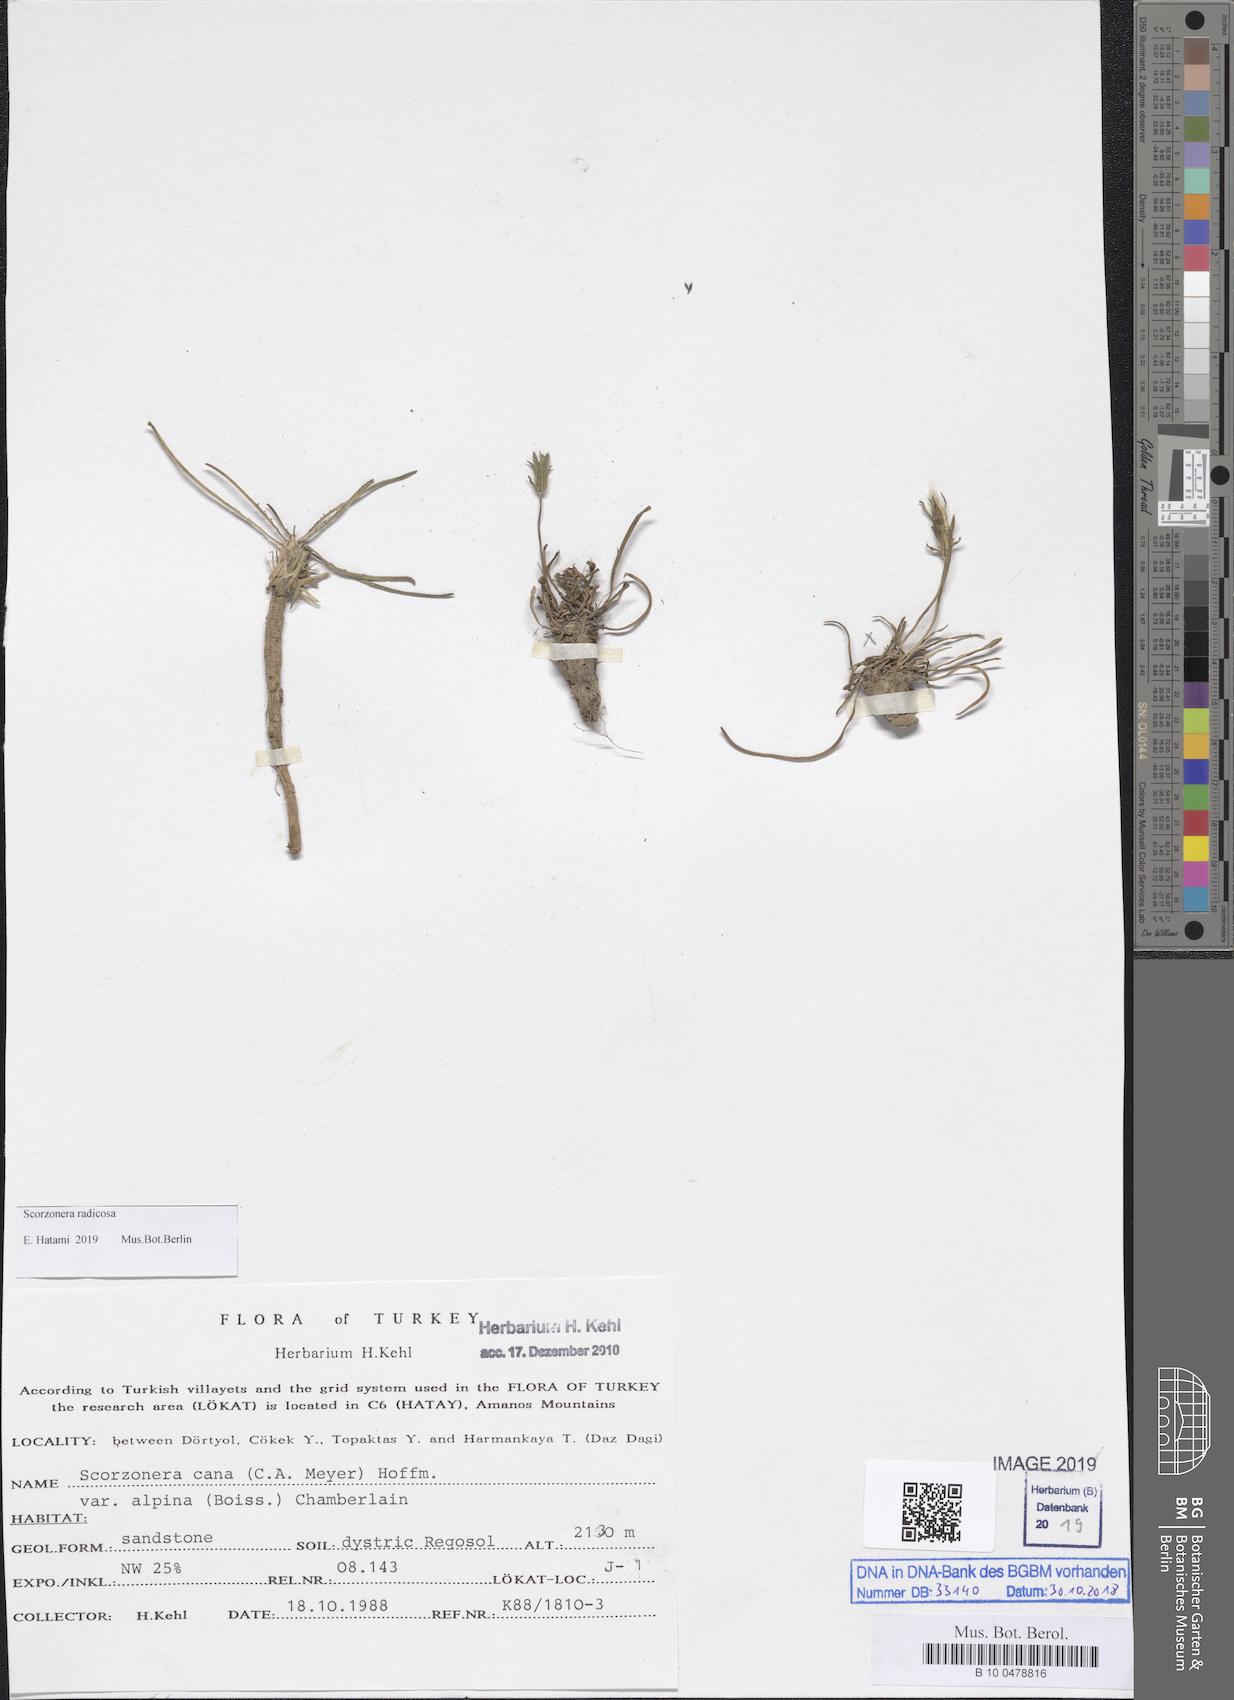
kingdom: Plantae
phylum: Tracheophyta
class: Magnoliopsida
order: Asterales
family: Asteraceae
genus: Scorzonera
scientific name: Scorzonera radicosa
